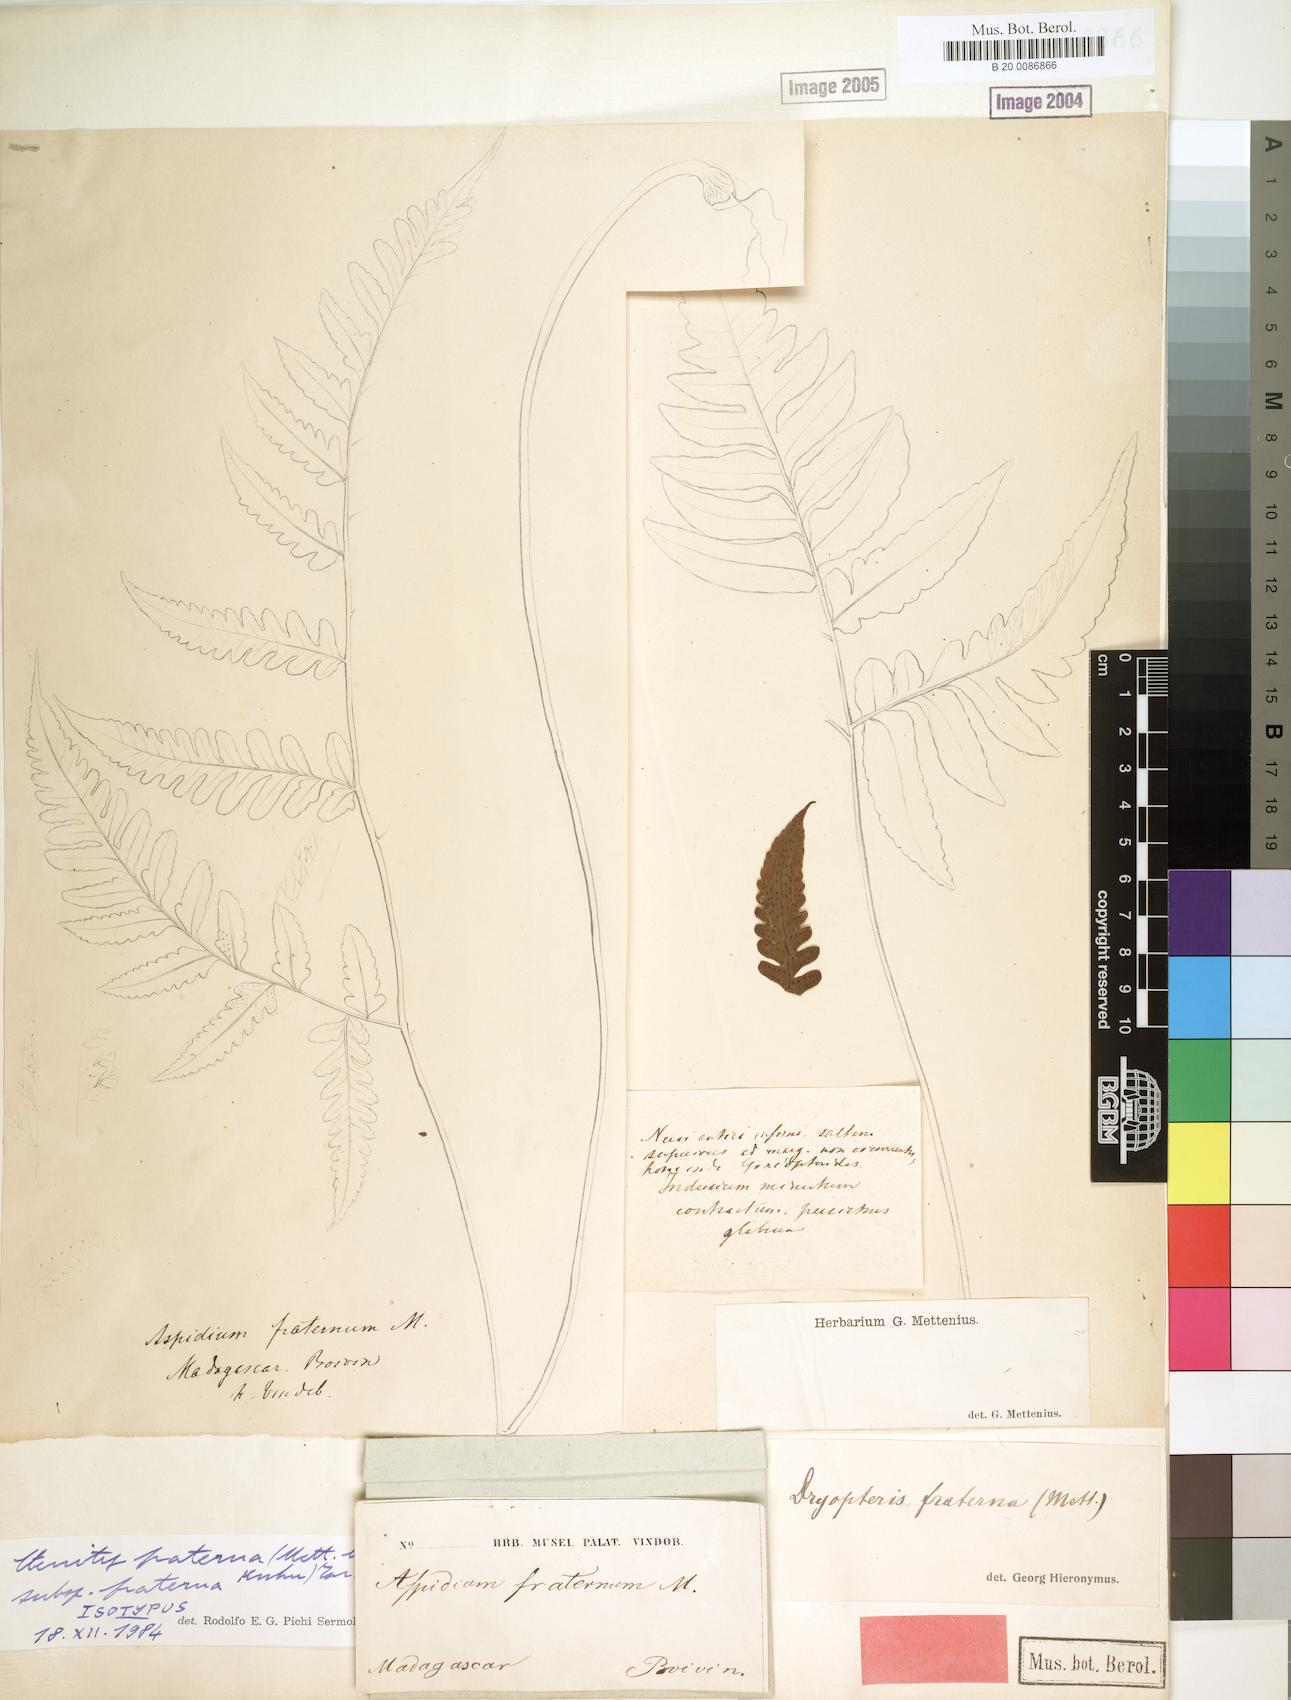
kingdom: Plantae
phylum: Tracheophyta
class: Polypodiopsida
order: Polypodiales
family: Tectariaceae
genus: Triplophyllum
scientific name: Triplophyllum fraternum
